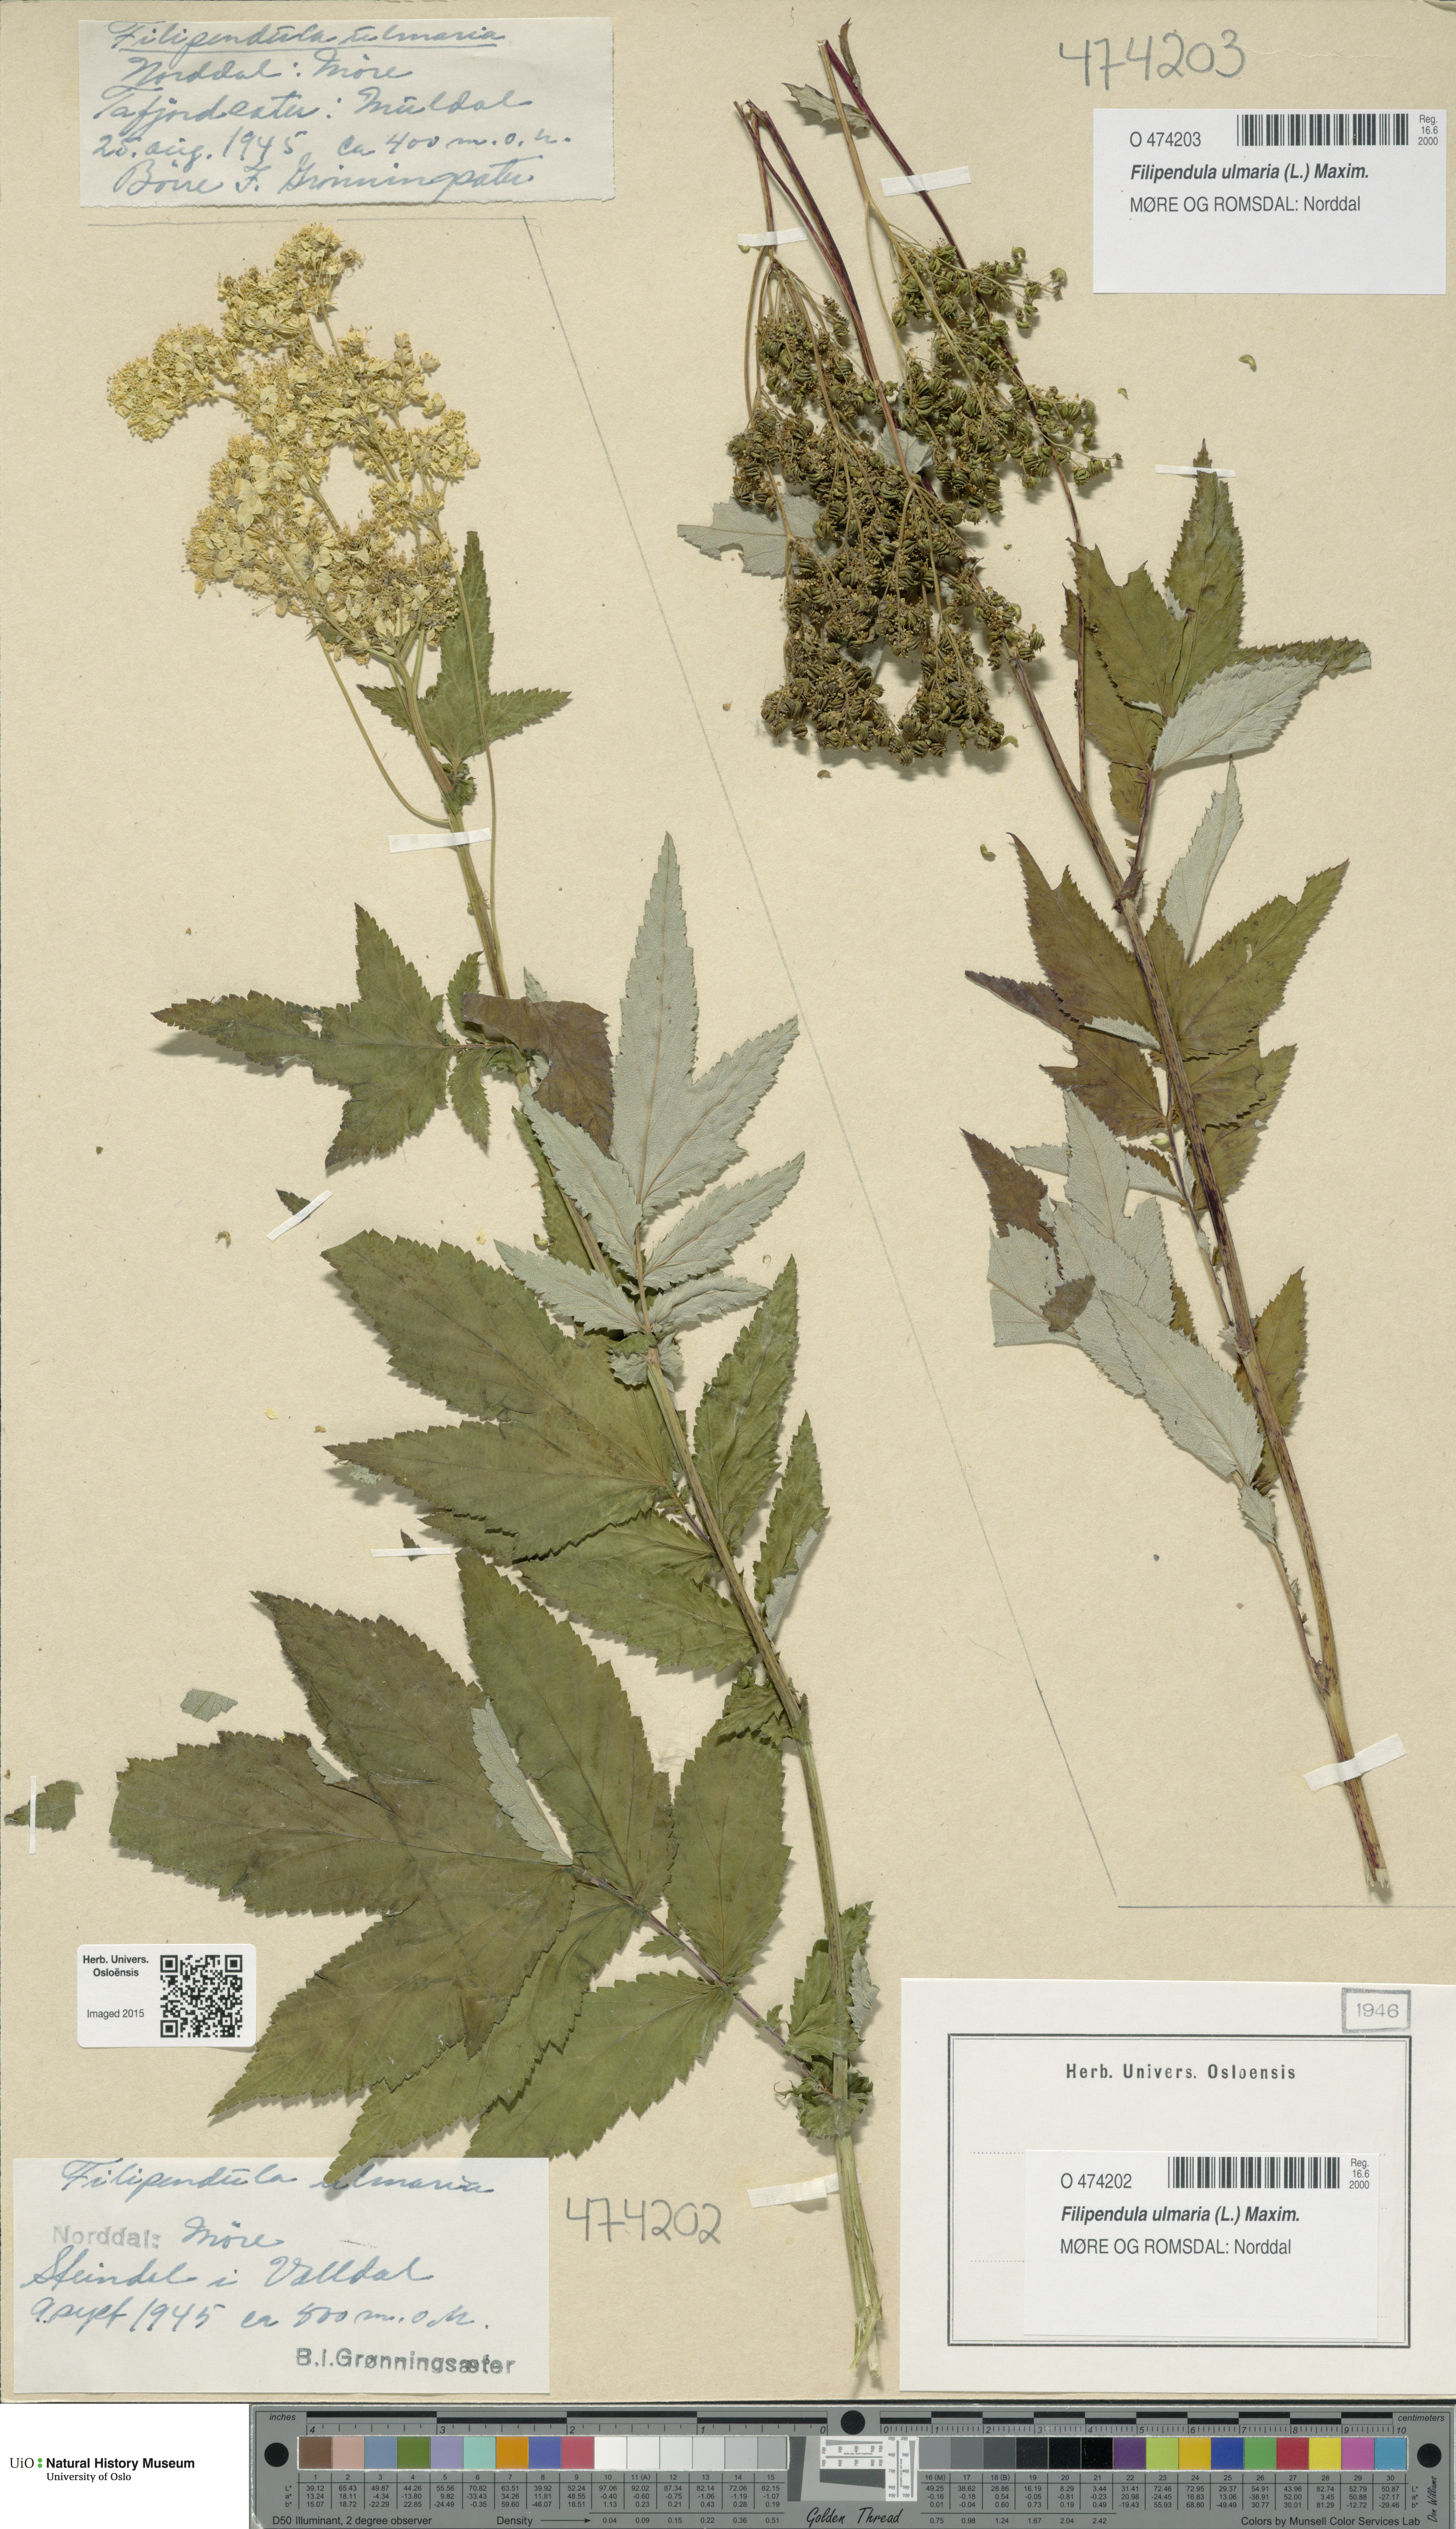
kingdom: Plantae
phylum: Tracheophyta
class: Magnoliopsida
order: Rosales
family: Rosaceae
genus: Filipendula
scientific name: Filipendula ulmaria
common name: Meadowsweet
